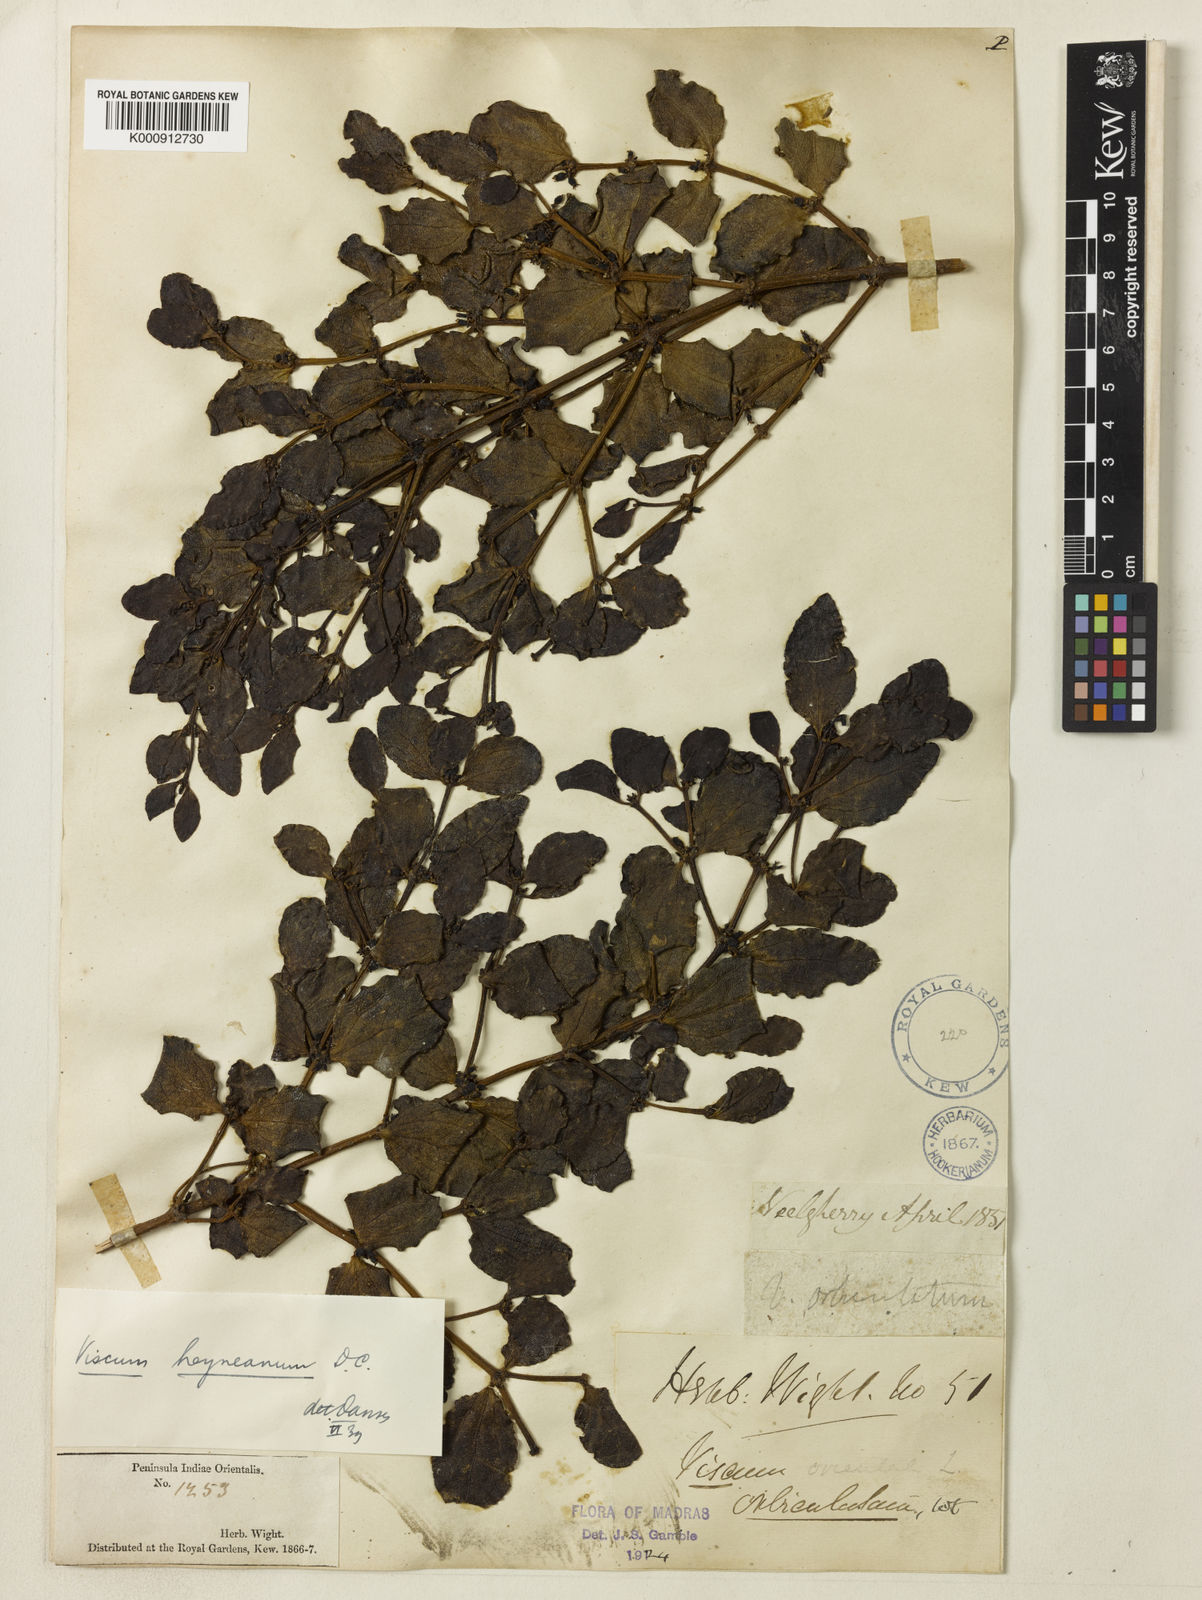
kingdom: Plantae
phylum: Tracheophyta
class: Magnoliopsida
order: Santalales
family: Viscaceae
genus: Viscum
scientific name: Viscum heyneanum
